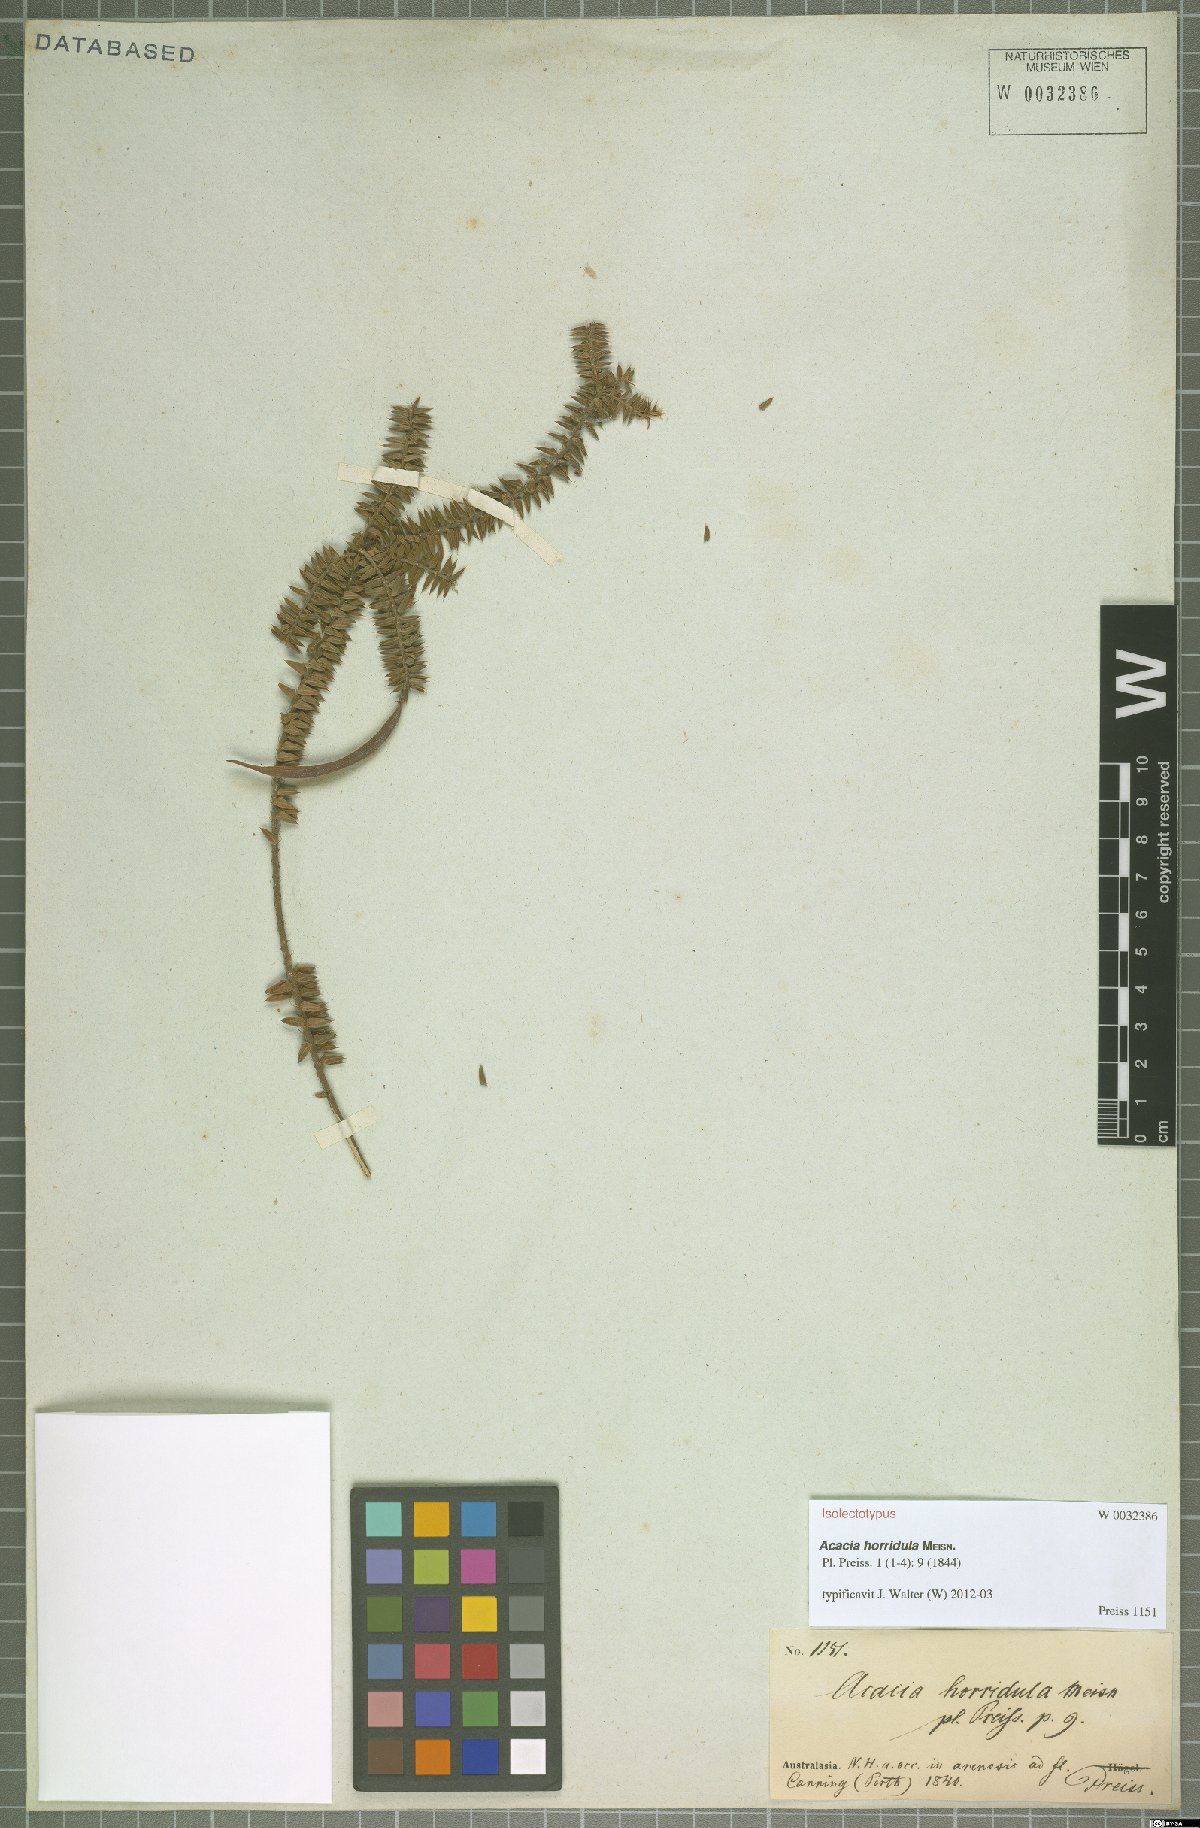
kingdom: Plantae
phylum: Tracheophyta
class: Magnoliopsida
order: Fabales
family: Fabaceae
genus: Acacia
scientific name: Acacia horridula
